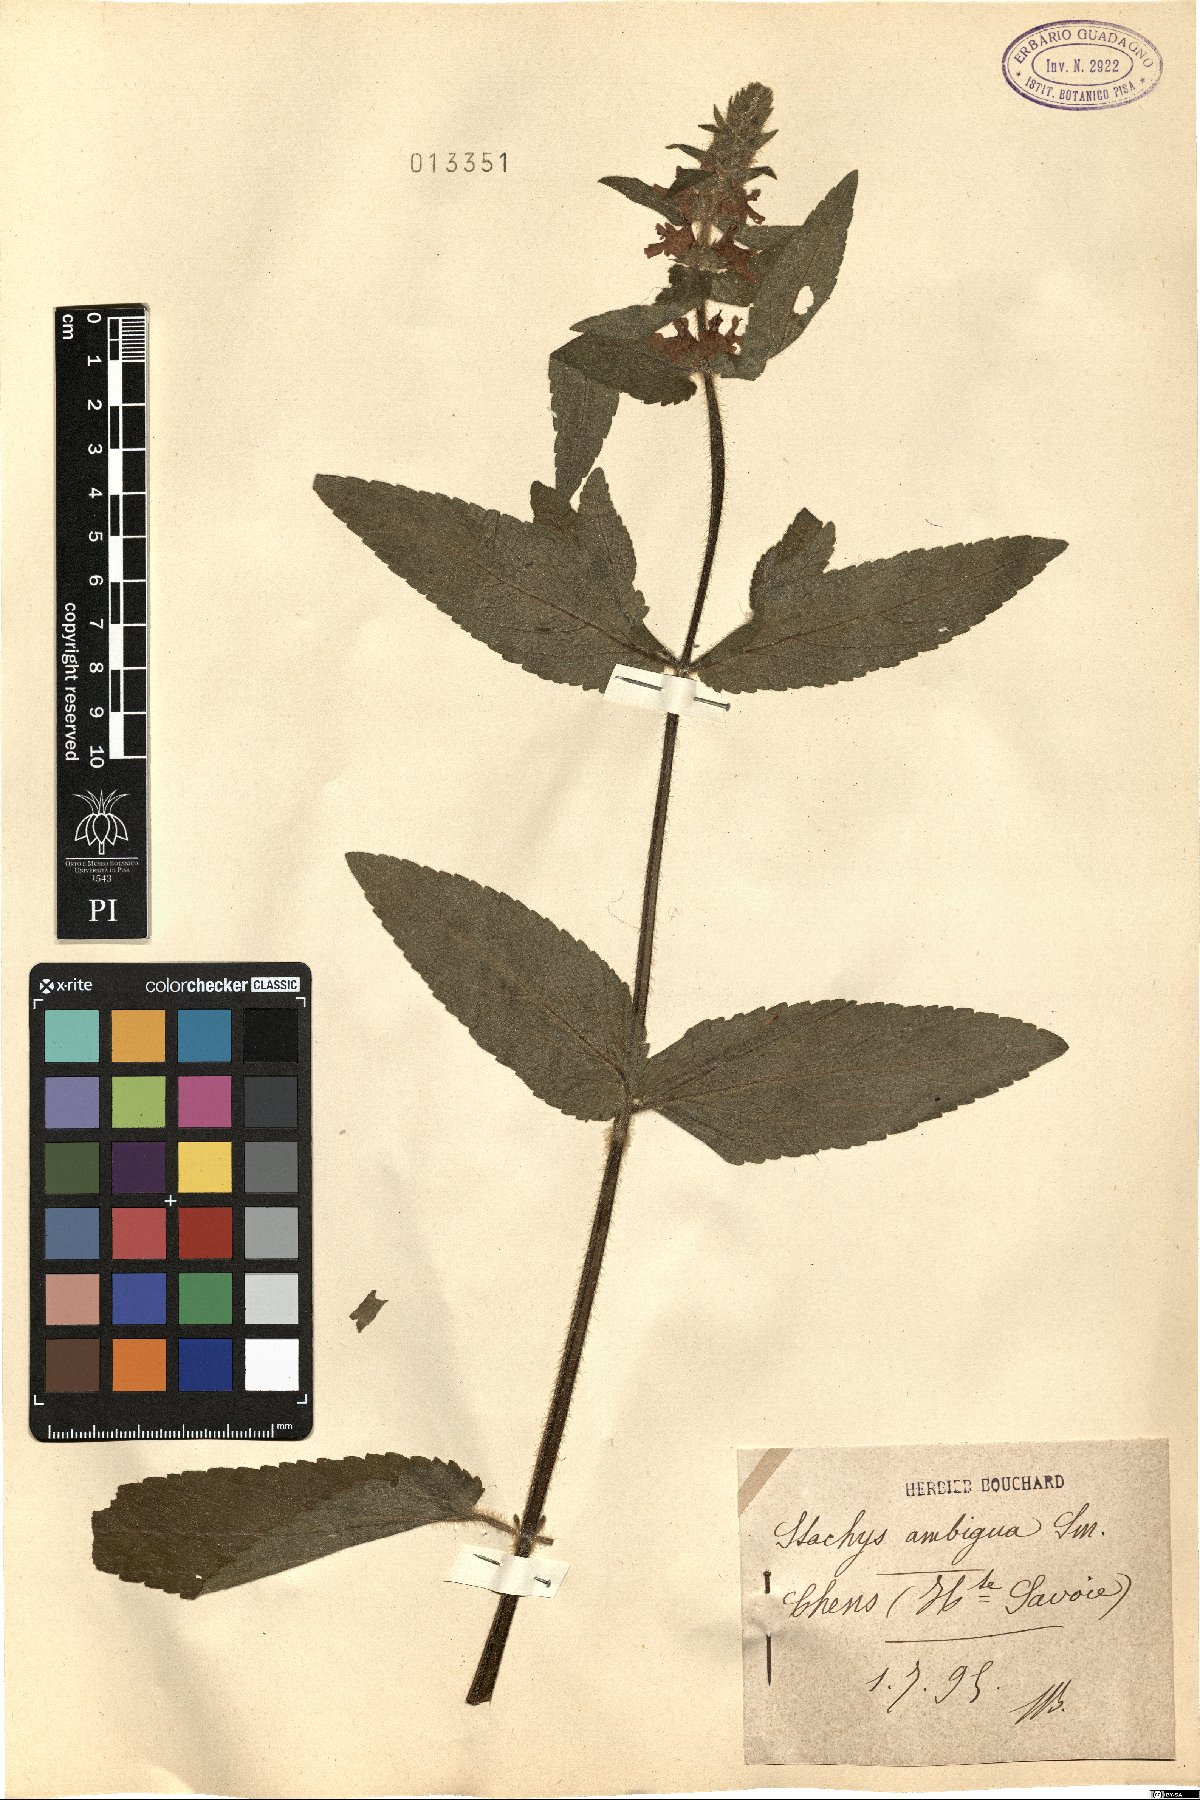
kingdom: Plantae
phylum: Tracheophyta
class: Magnoliopsida
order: Lamiales
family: Lamiaceae
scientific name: Lamiaceae
